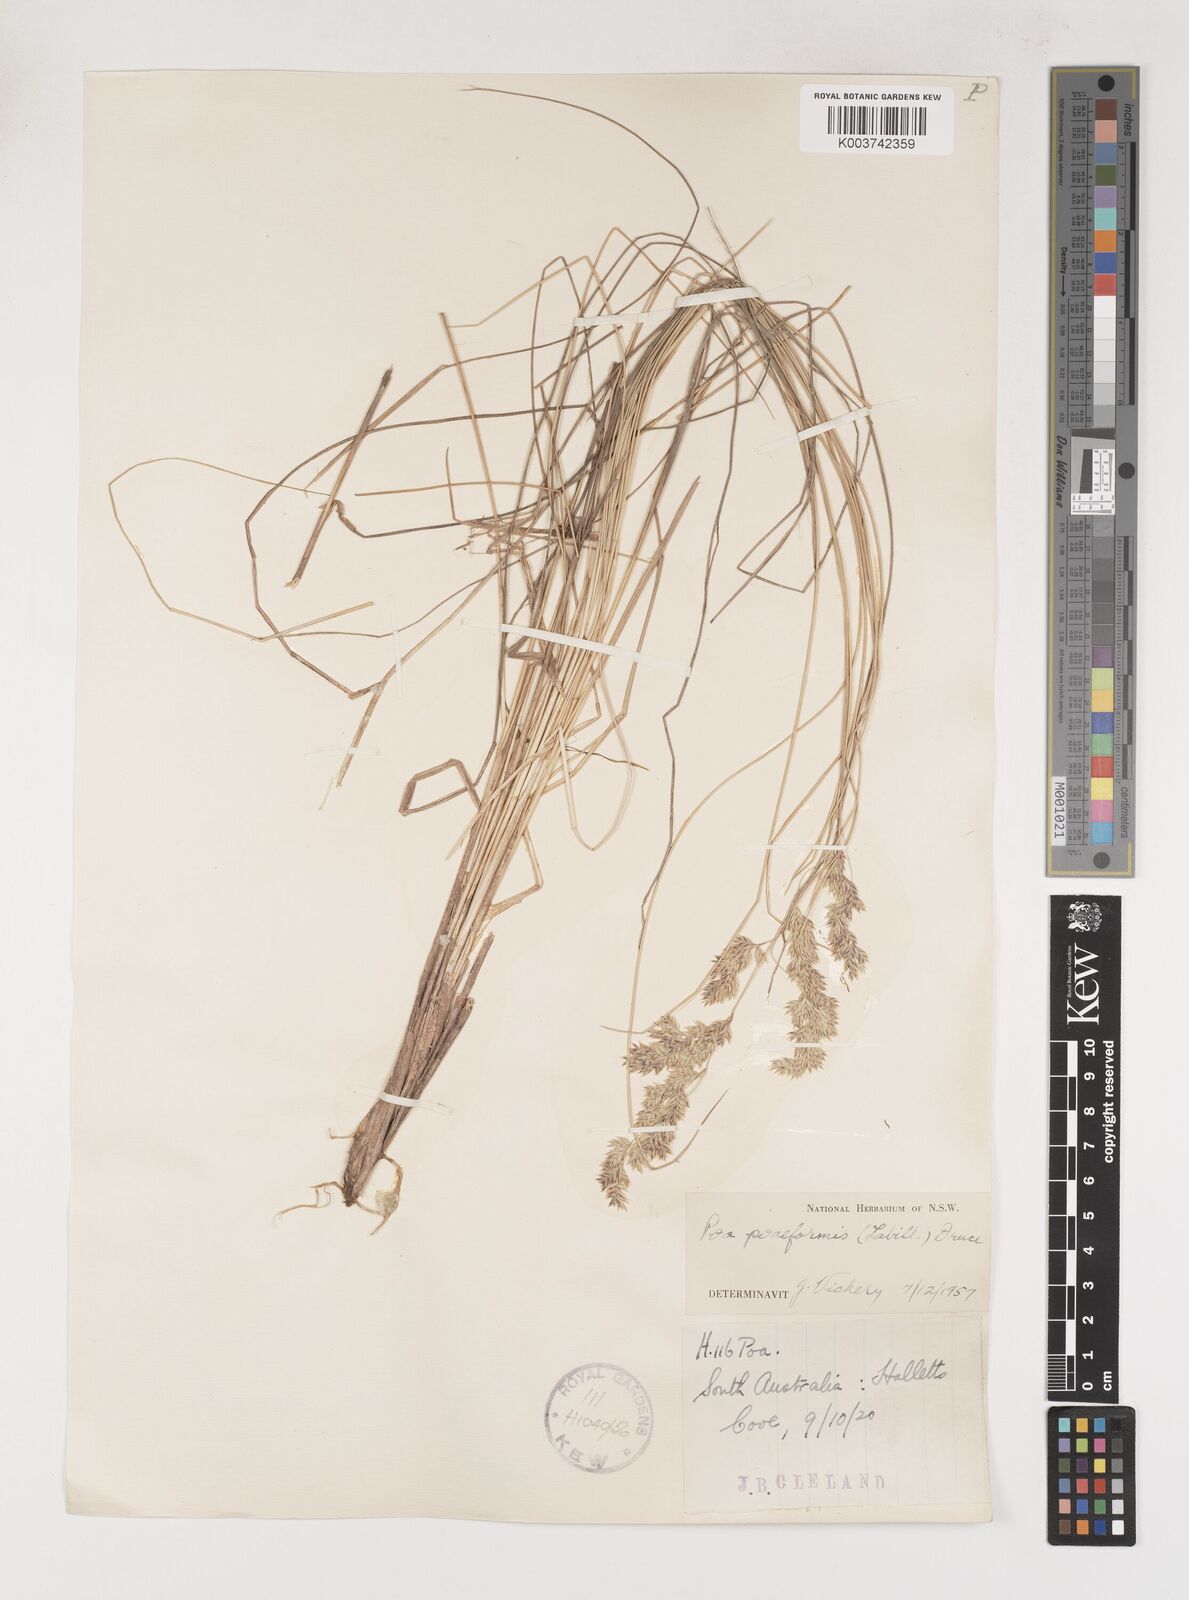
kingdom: Plantae
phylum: Tracheophyta
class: Liliopsida
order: Poales
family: Poaceae
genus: Poa
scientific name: Poa poiformis
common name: Tussock poa
